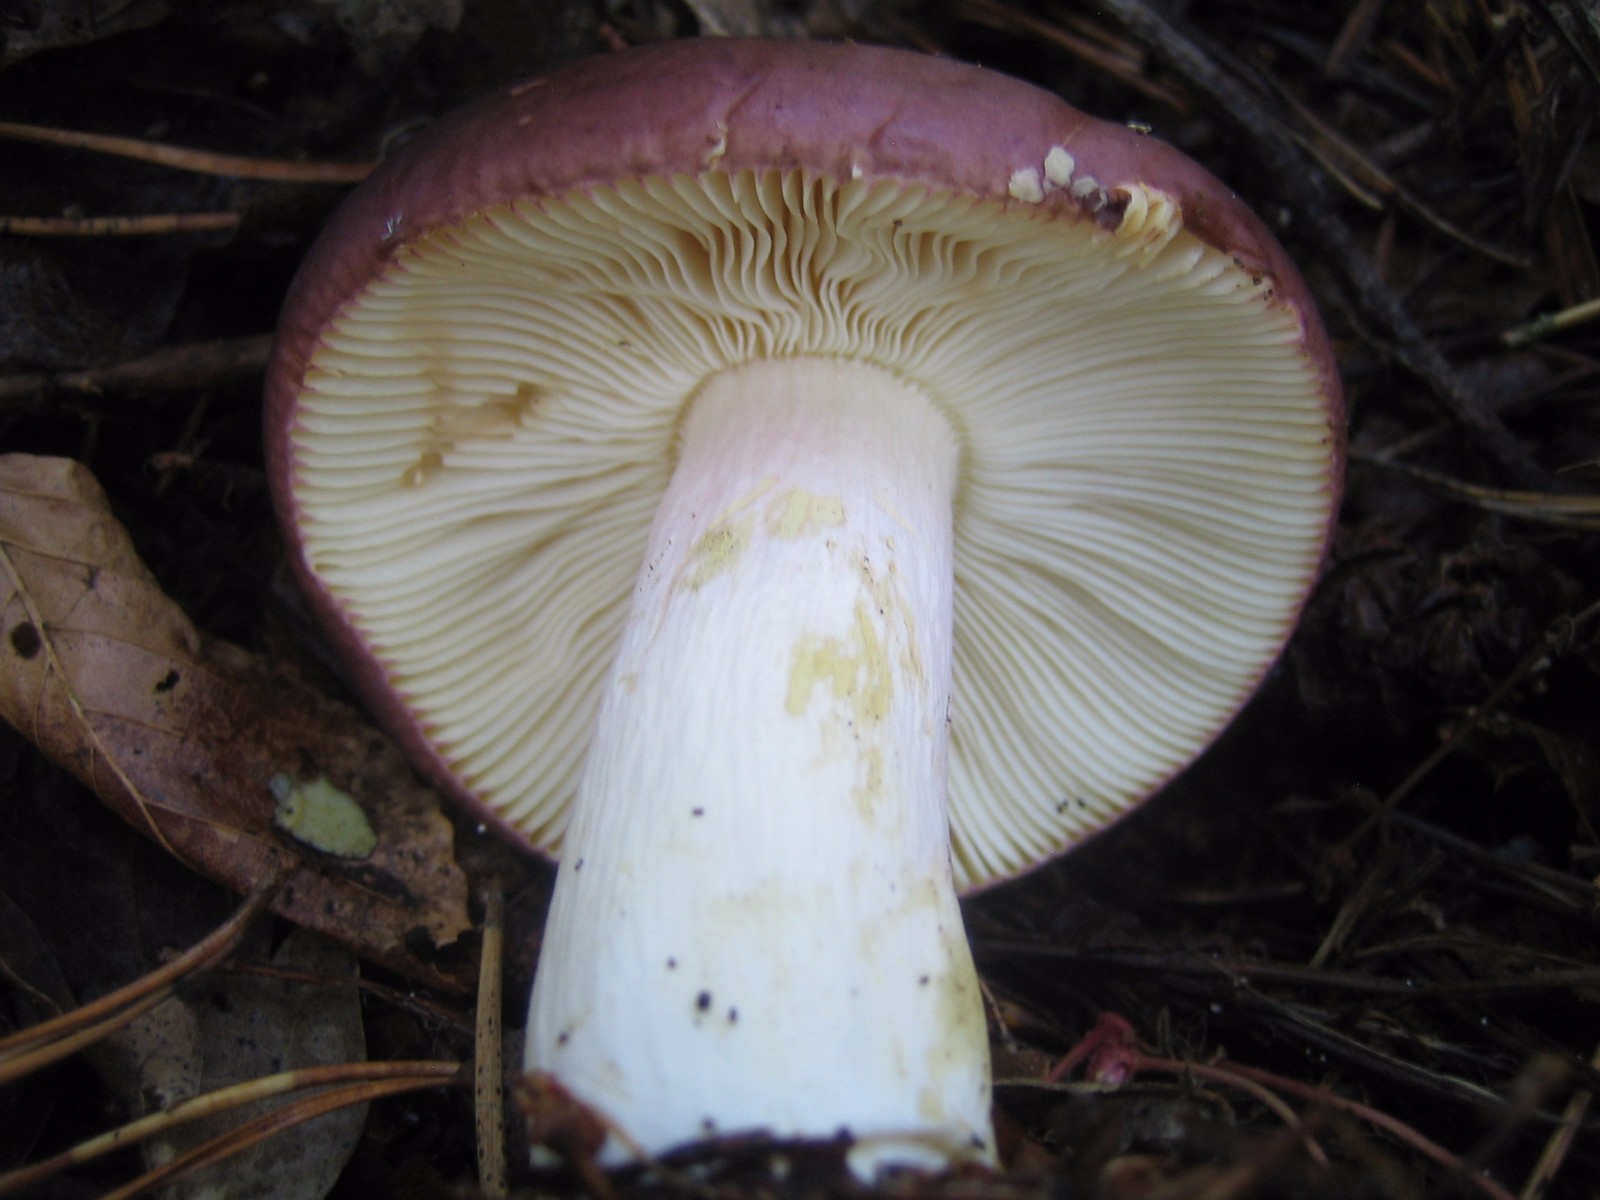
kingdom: Fungi
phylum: Basidiomycota
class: Agaricomycetes
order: Russulales
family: Russulaceae
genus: Russula
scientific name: Russula xerampelina
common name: hummer-skørhat
